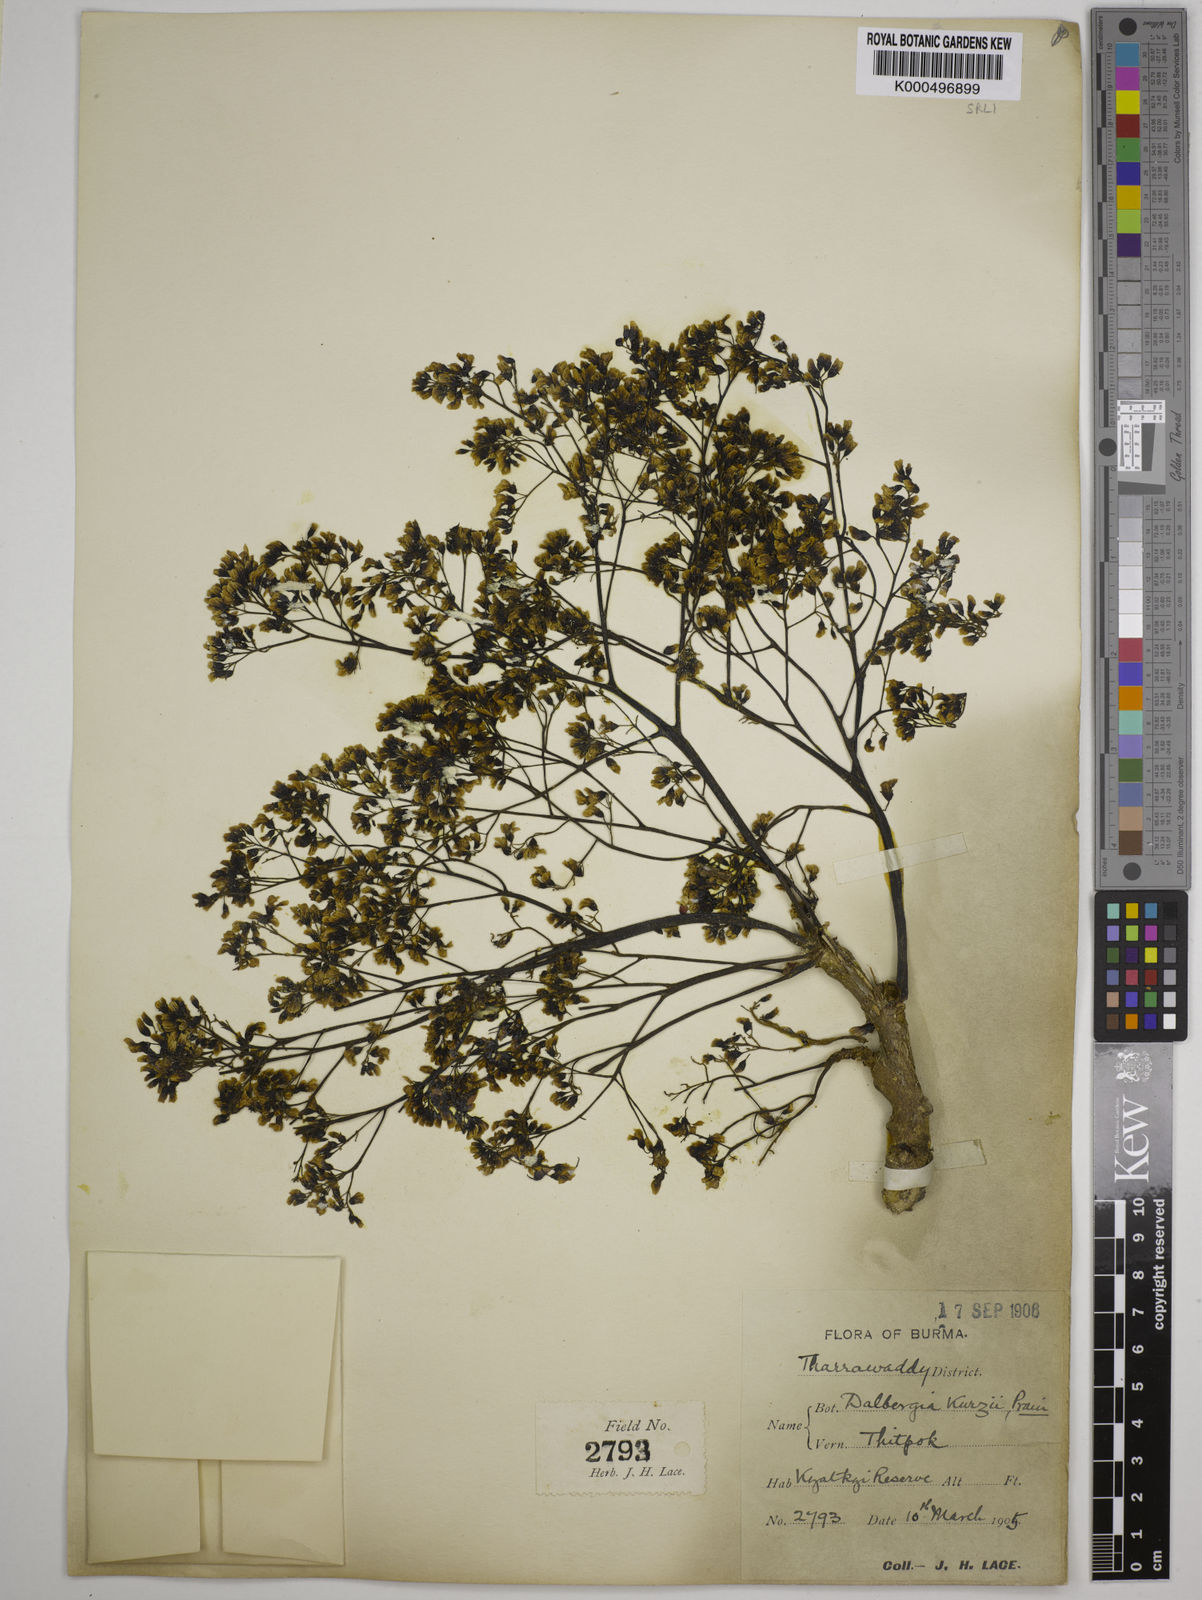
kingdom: Plantae
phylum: Tracheophyta
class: Magnoliopsida
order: Fabales
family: Fabaceae
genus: Dalbergia
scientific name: Dalbergia cana
